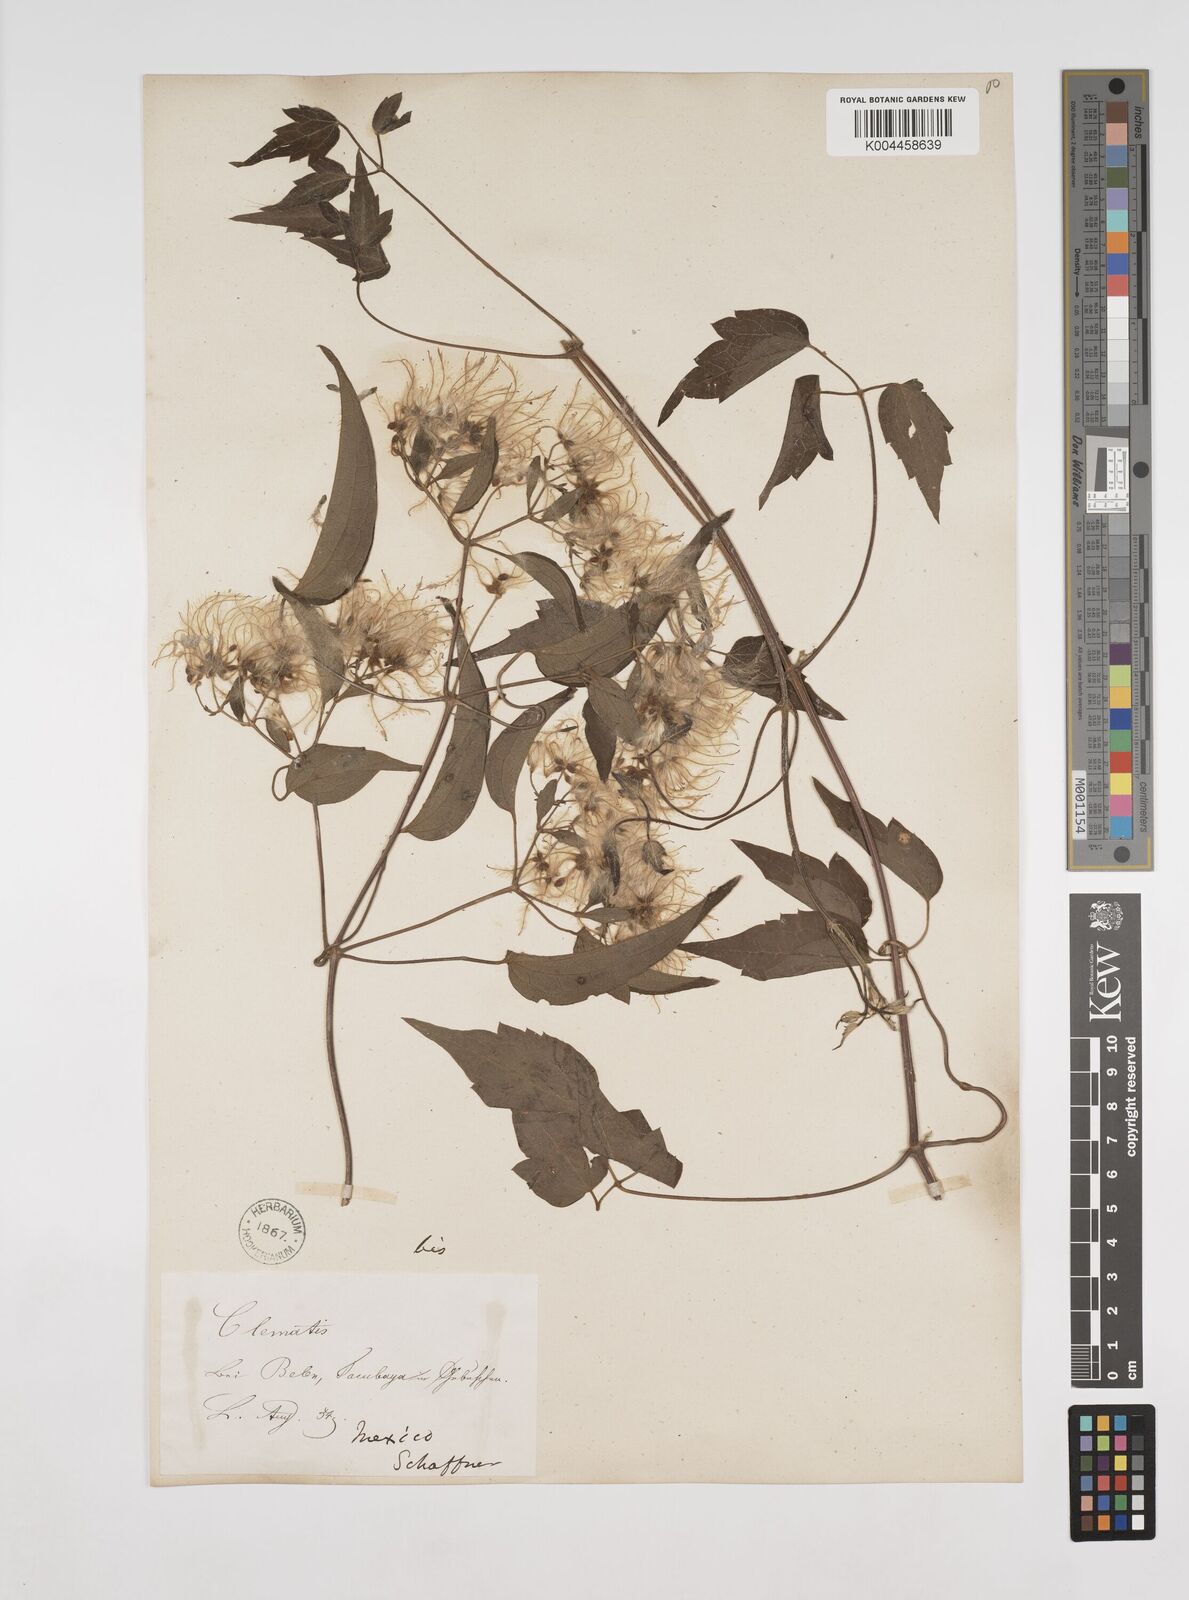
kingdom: Plantae
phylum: Tracheophyta
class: Magnoliopsida
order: Ranunculales
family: Ranunculaceae
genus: Clematis
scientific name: Clematis dioica
